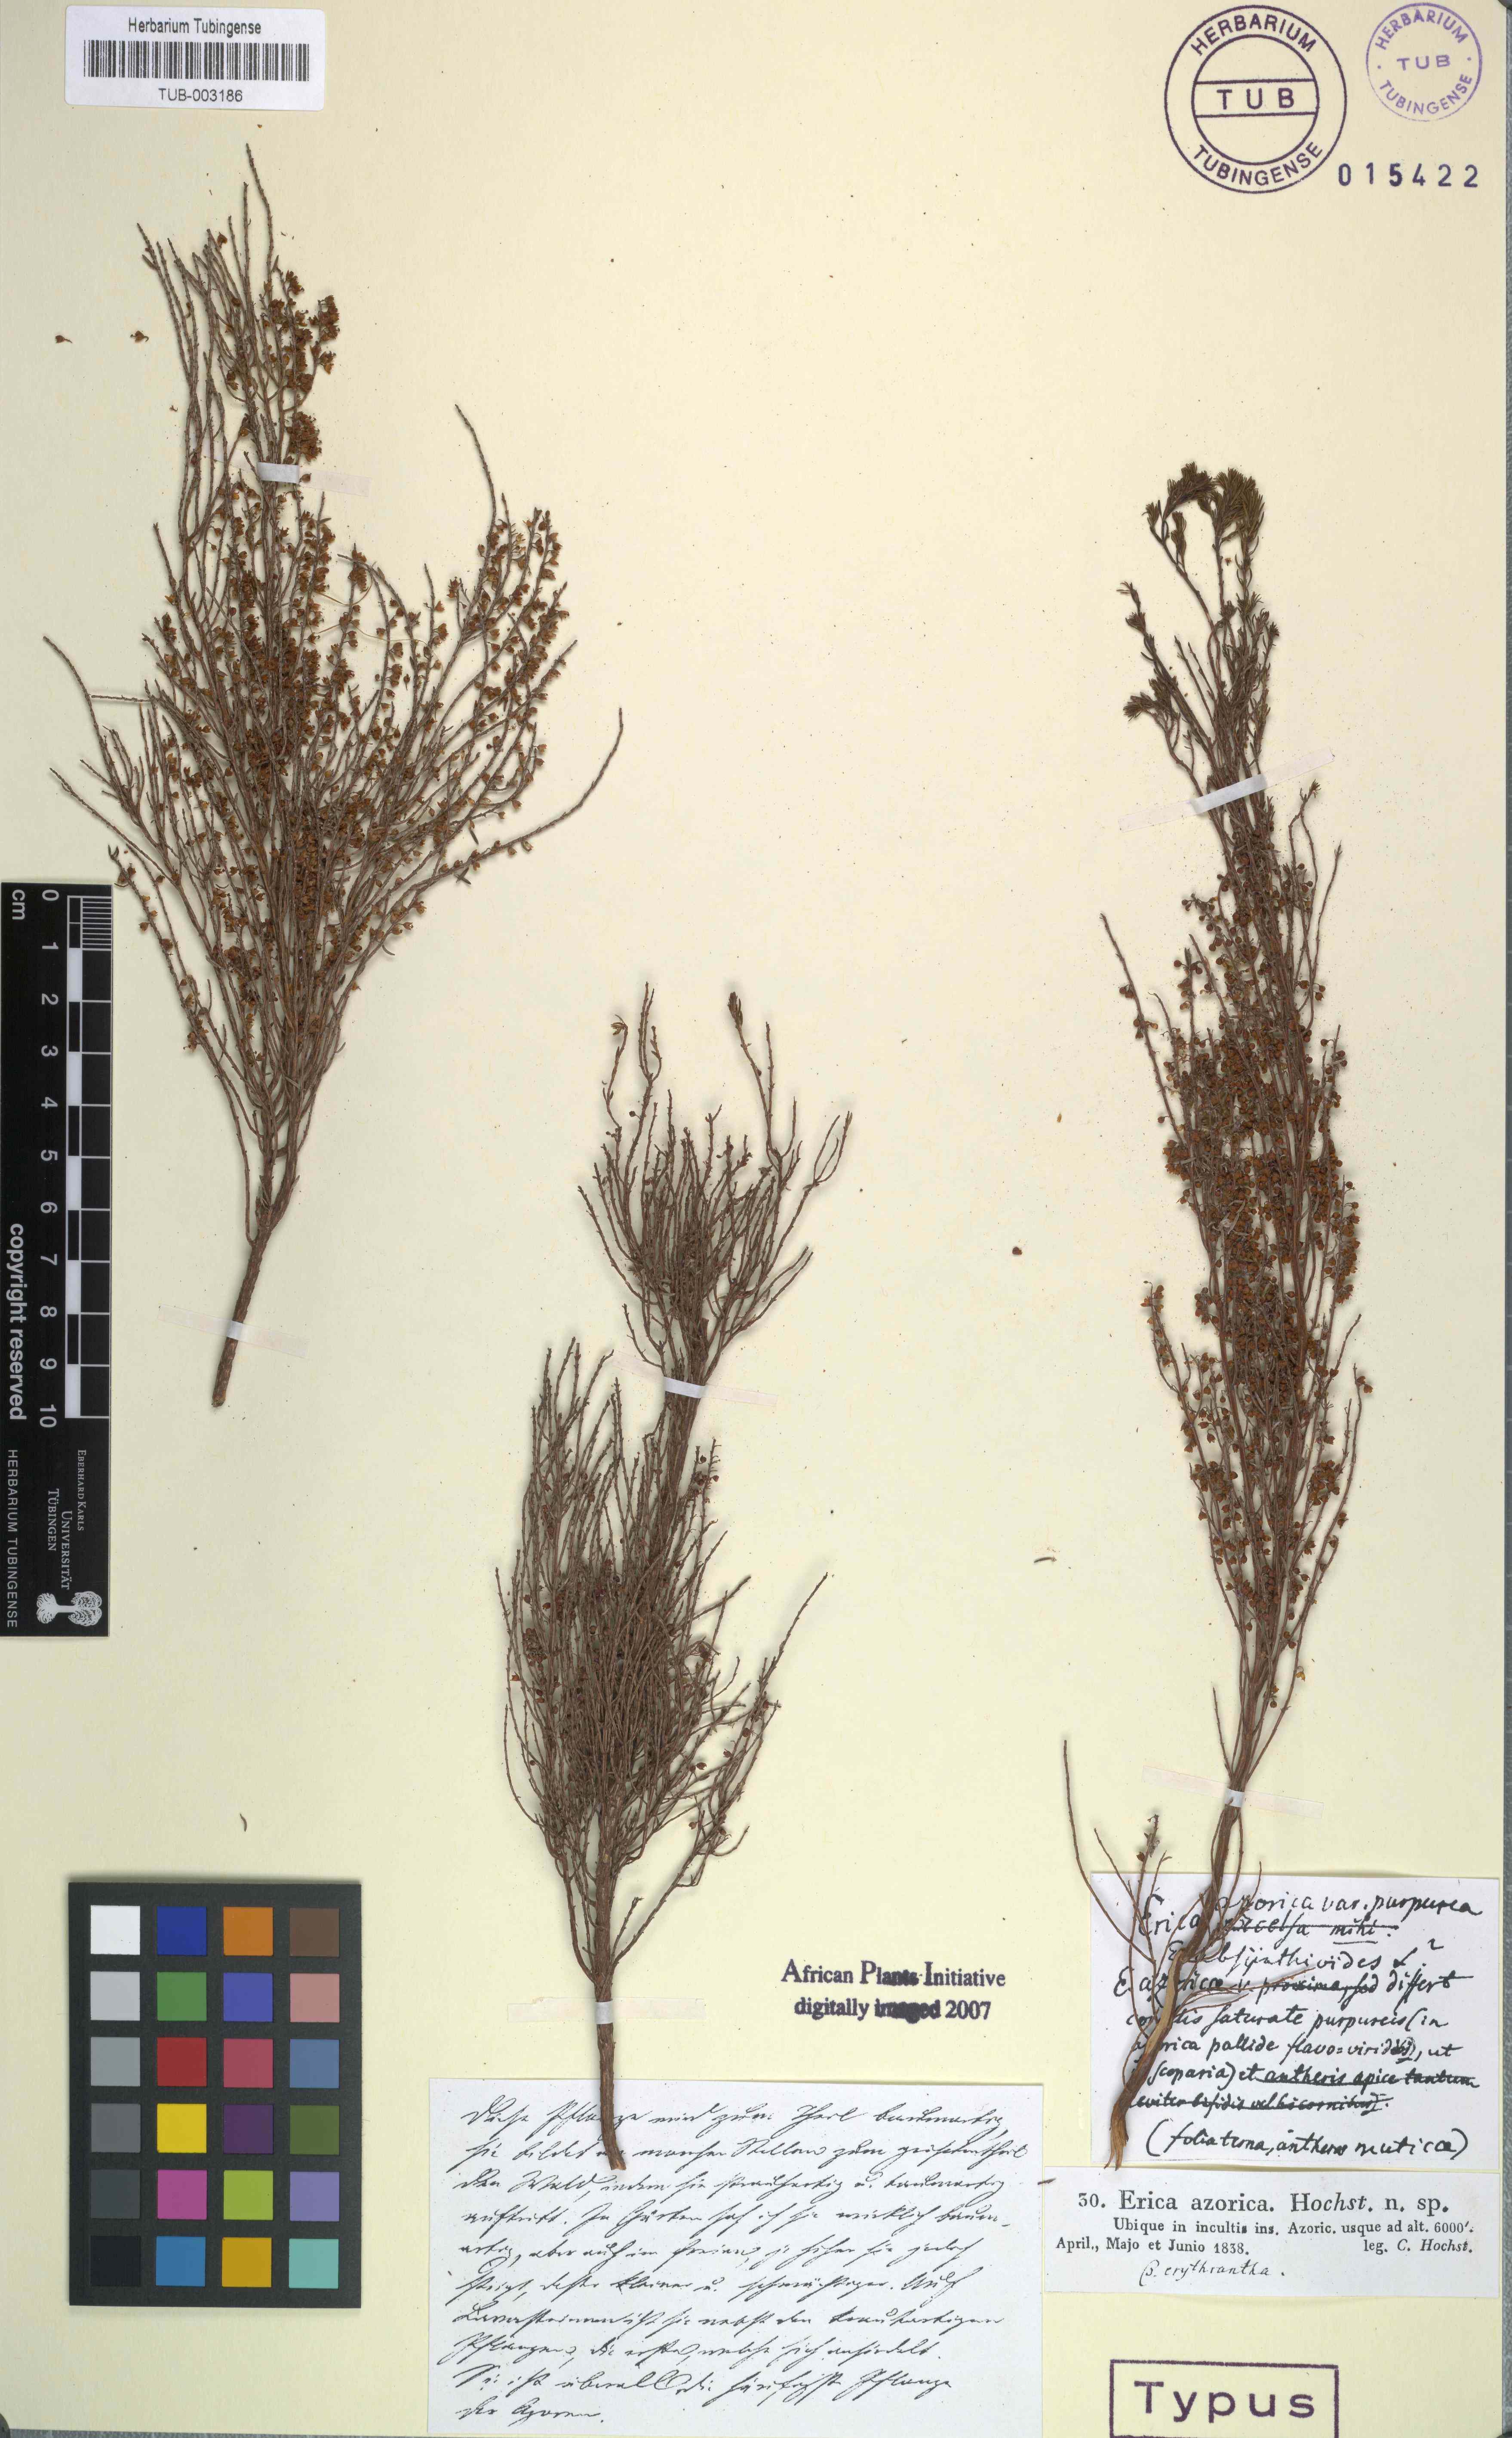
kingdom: Plantae
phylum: Tracheophyta
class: Magnoliopsida
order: Ericales
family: Ericaceae
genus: Erica
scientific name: Erica azorica
